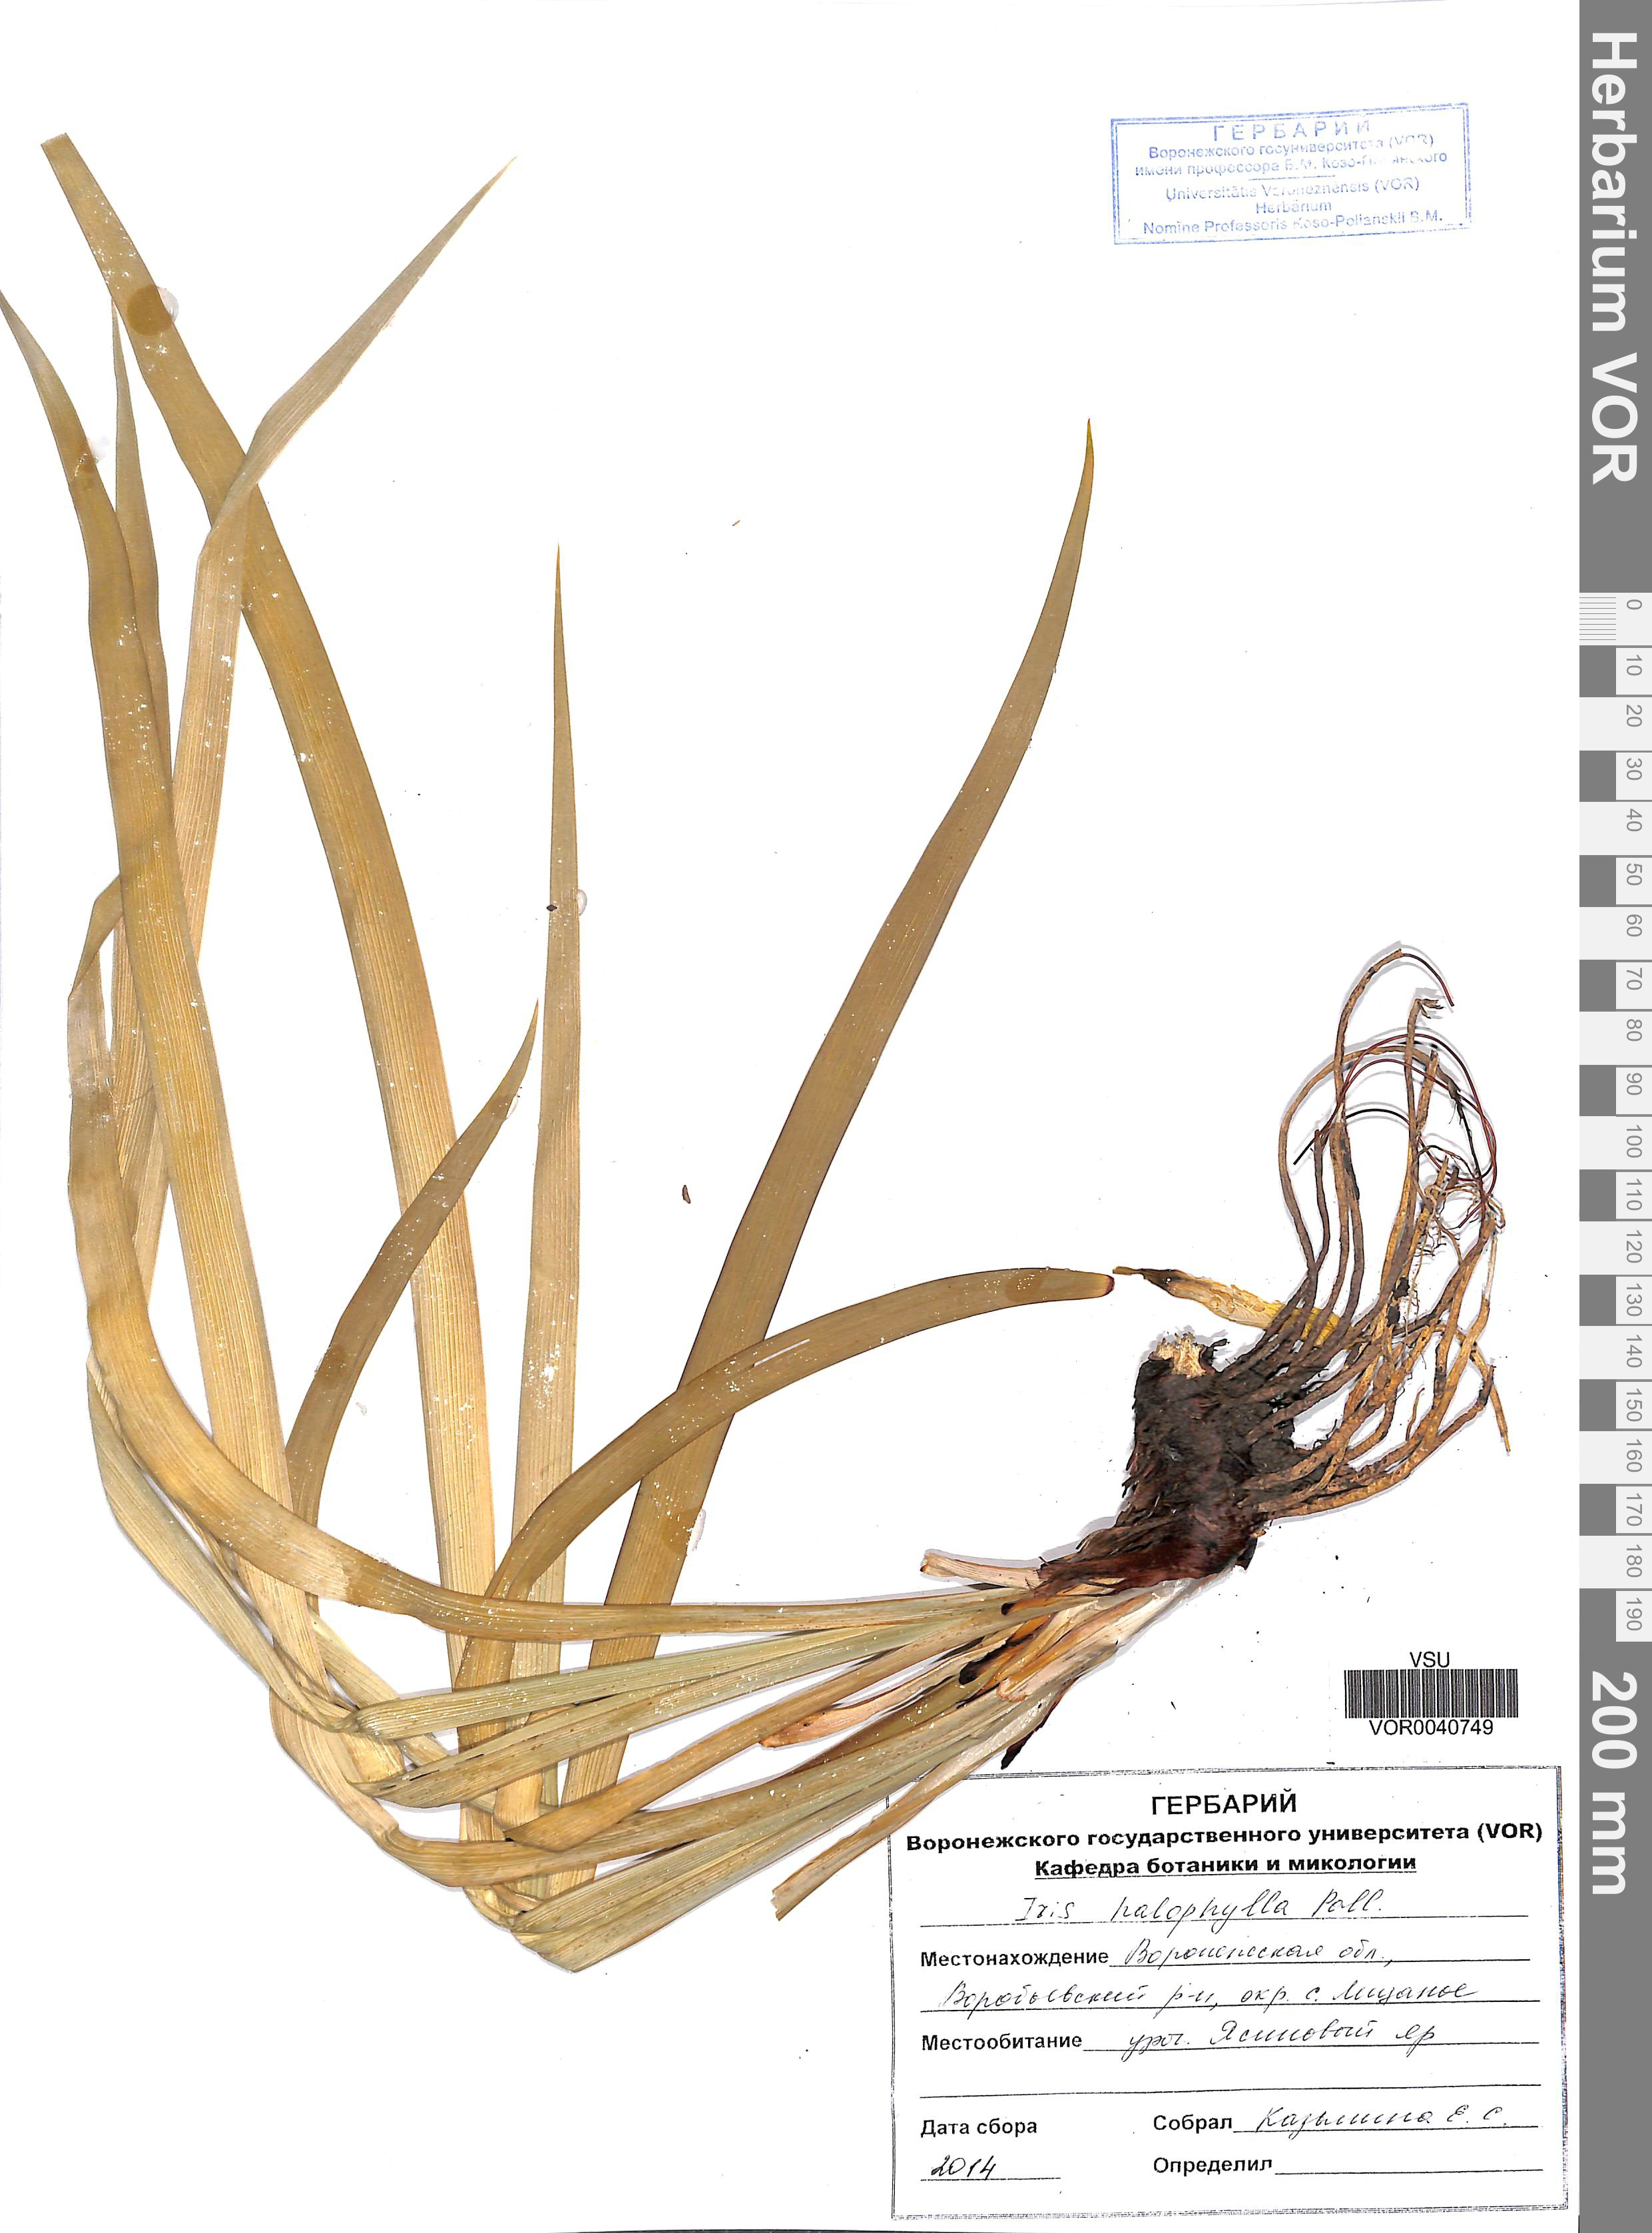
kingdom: Plantae
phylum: Tracheophyta
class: Liliopsida
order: Asparagales
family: Iridaceae
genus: Iris
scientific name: Iris halophila
